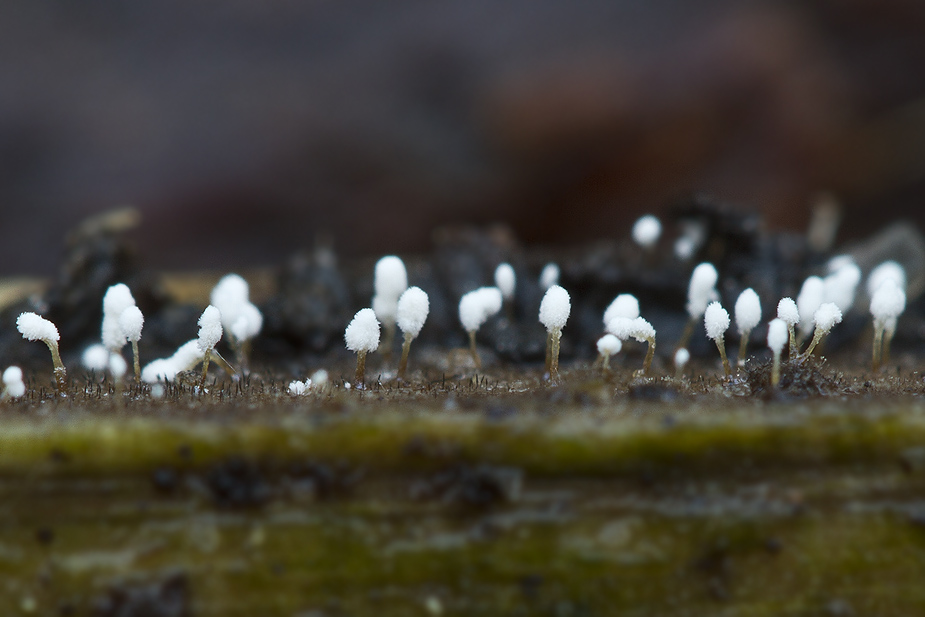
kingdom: Fungi
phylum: Ascomycota
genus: Sphaeridium
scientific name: Sphaeridium candidulum
